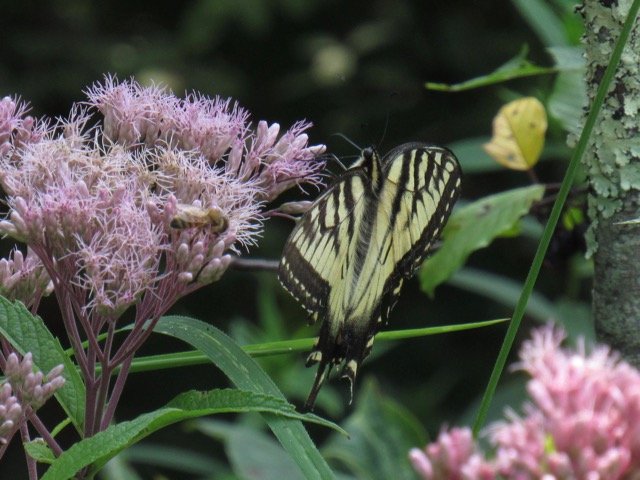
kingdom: Animalia
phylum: Arthropoda
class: Insecta
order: Lepidoptera
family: Papilionidae
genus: Pterourus
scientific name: Pterourus
